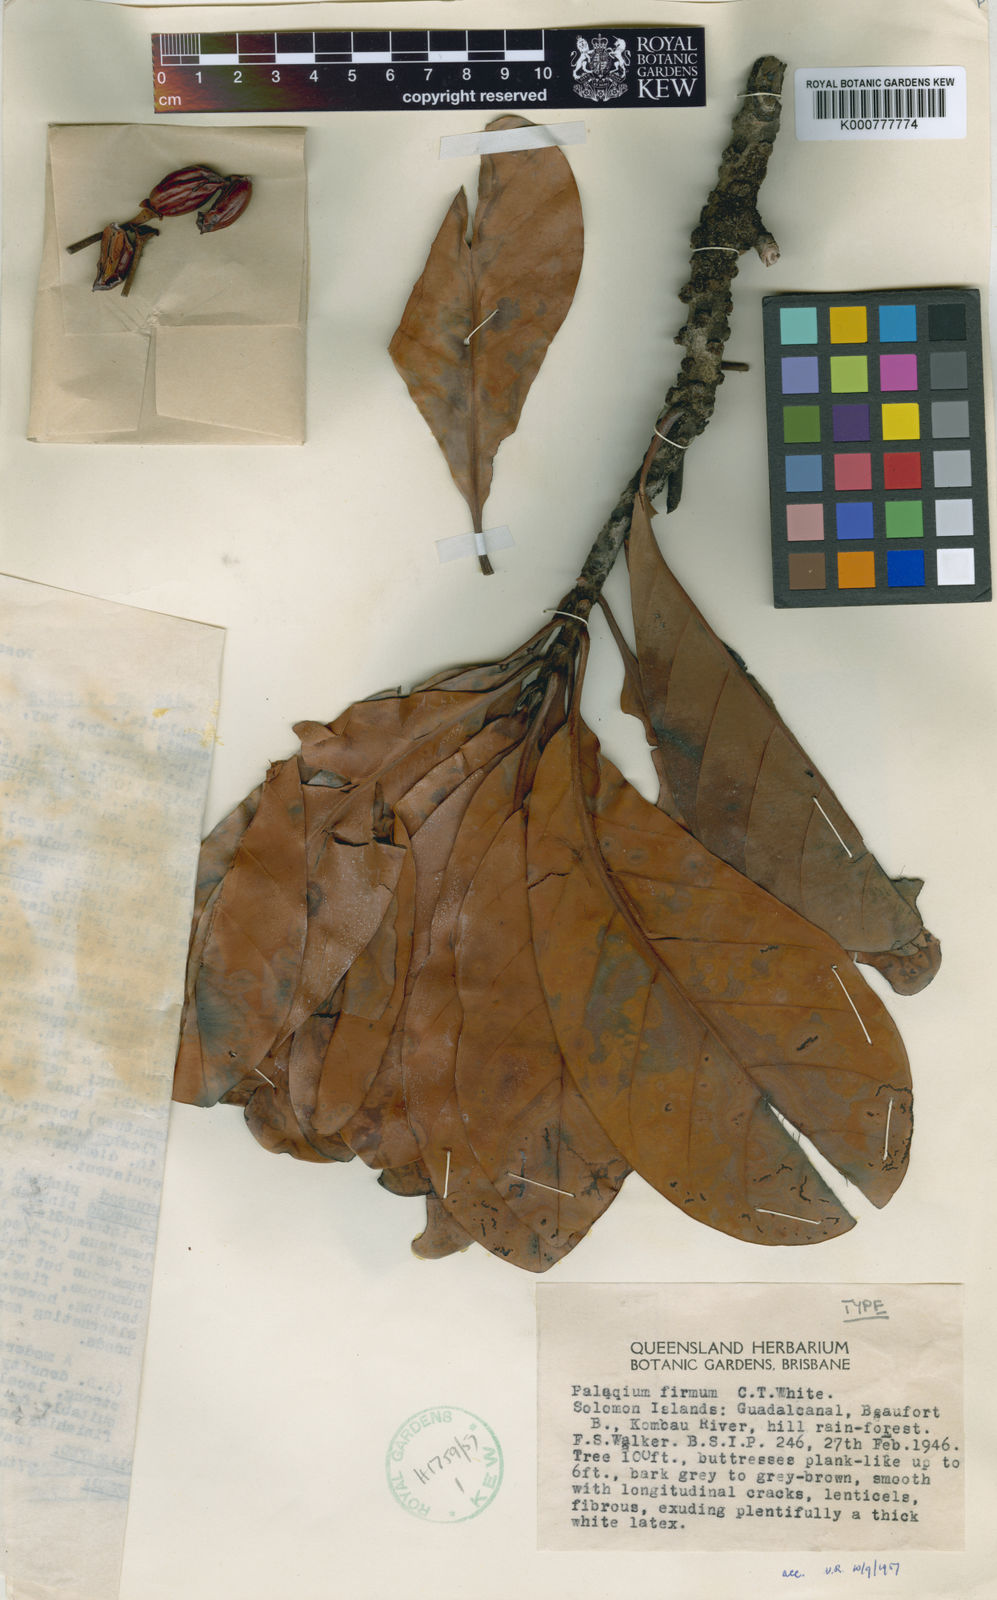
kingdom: Plantae
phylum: Tracheophyta
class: Magnoliopsida
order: Ericales
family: Sapotaceae
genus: Palaquium
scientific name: Palaquium firmum
